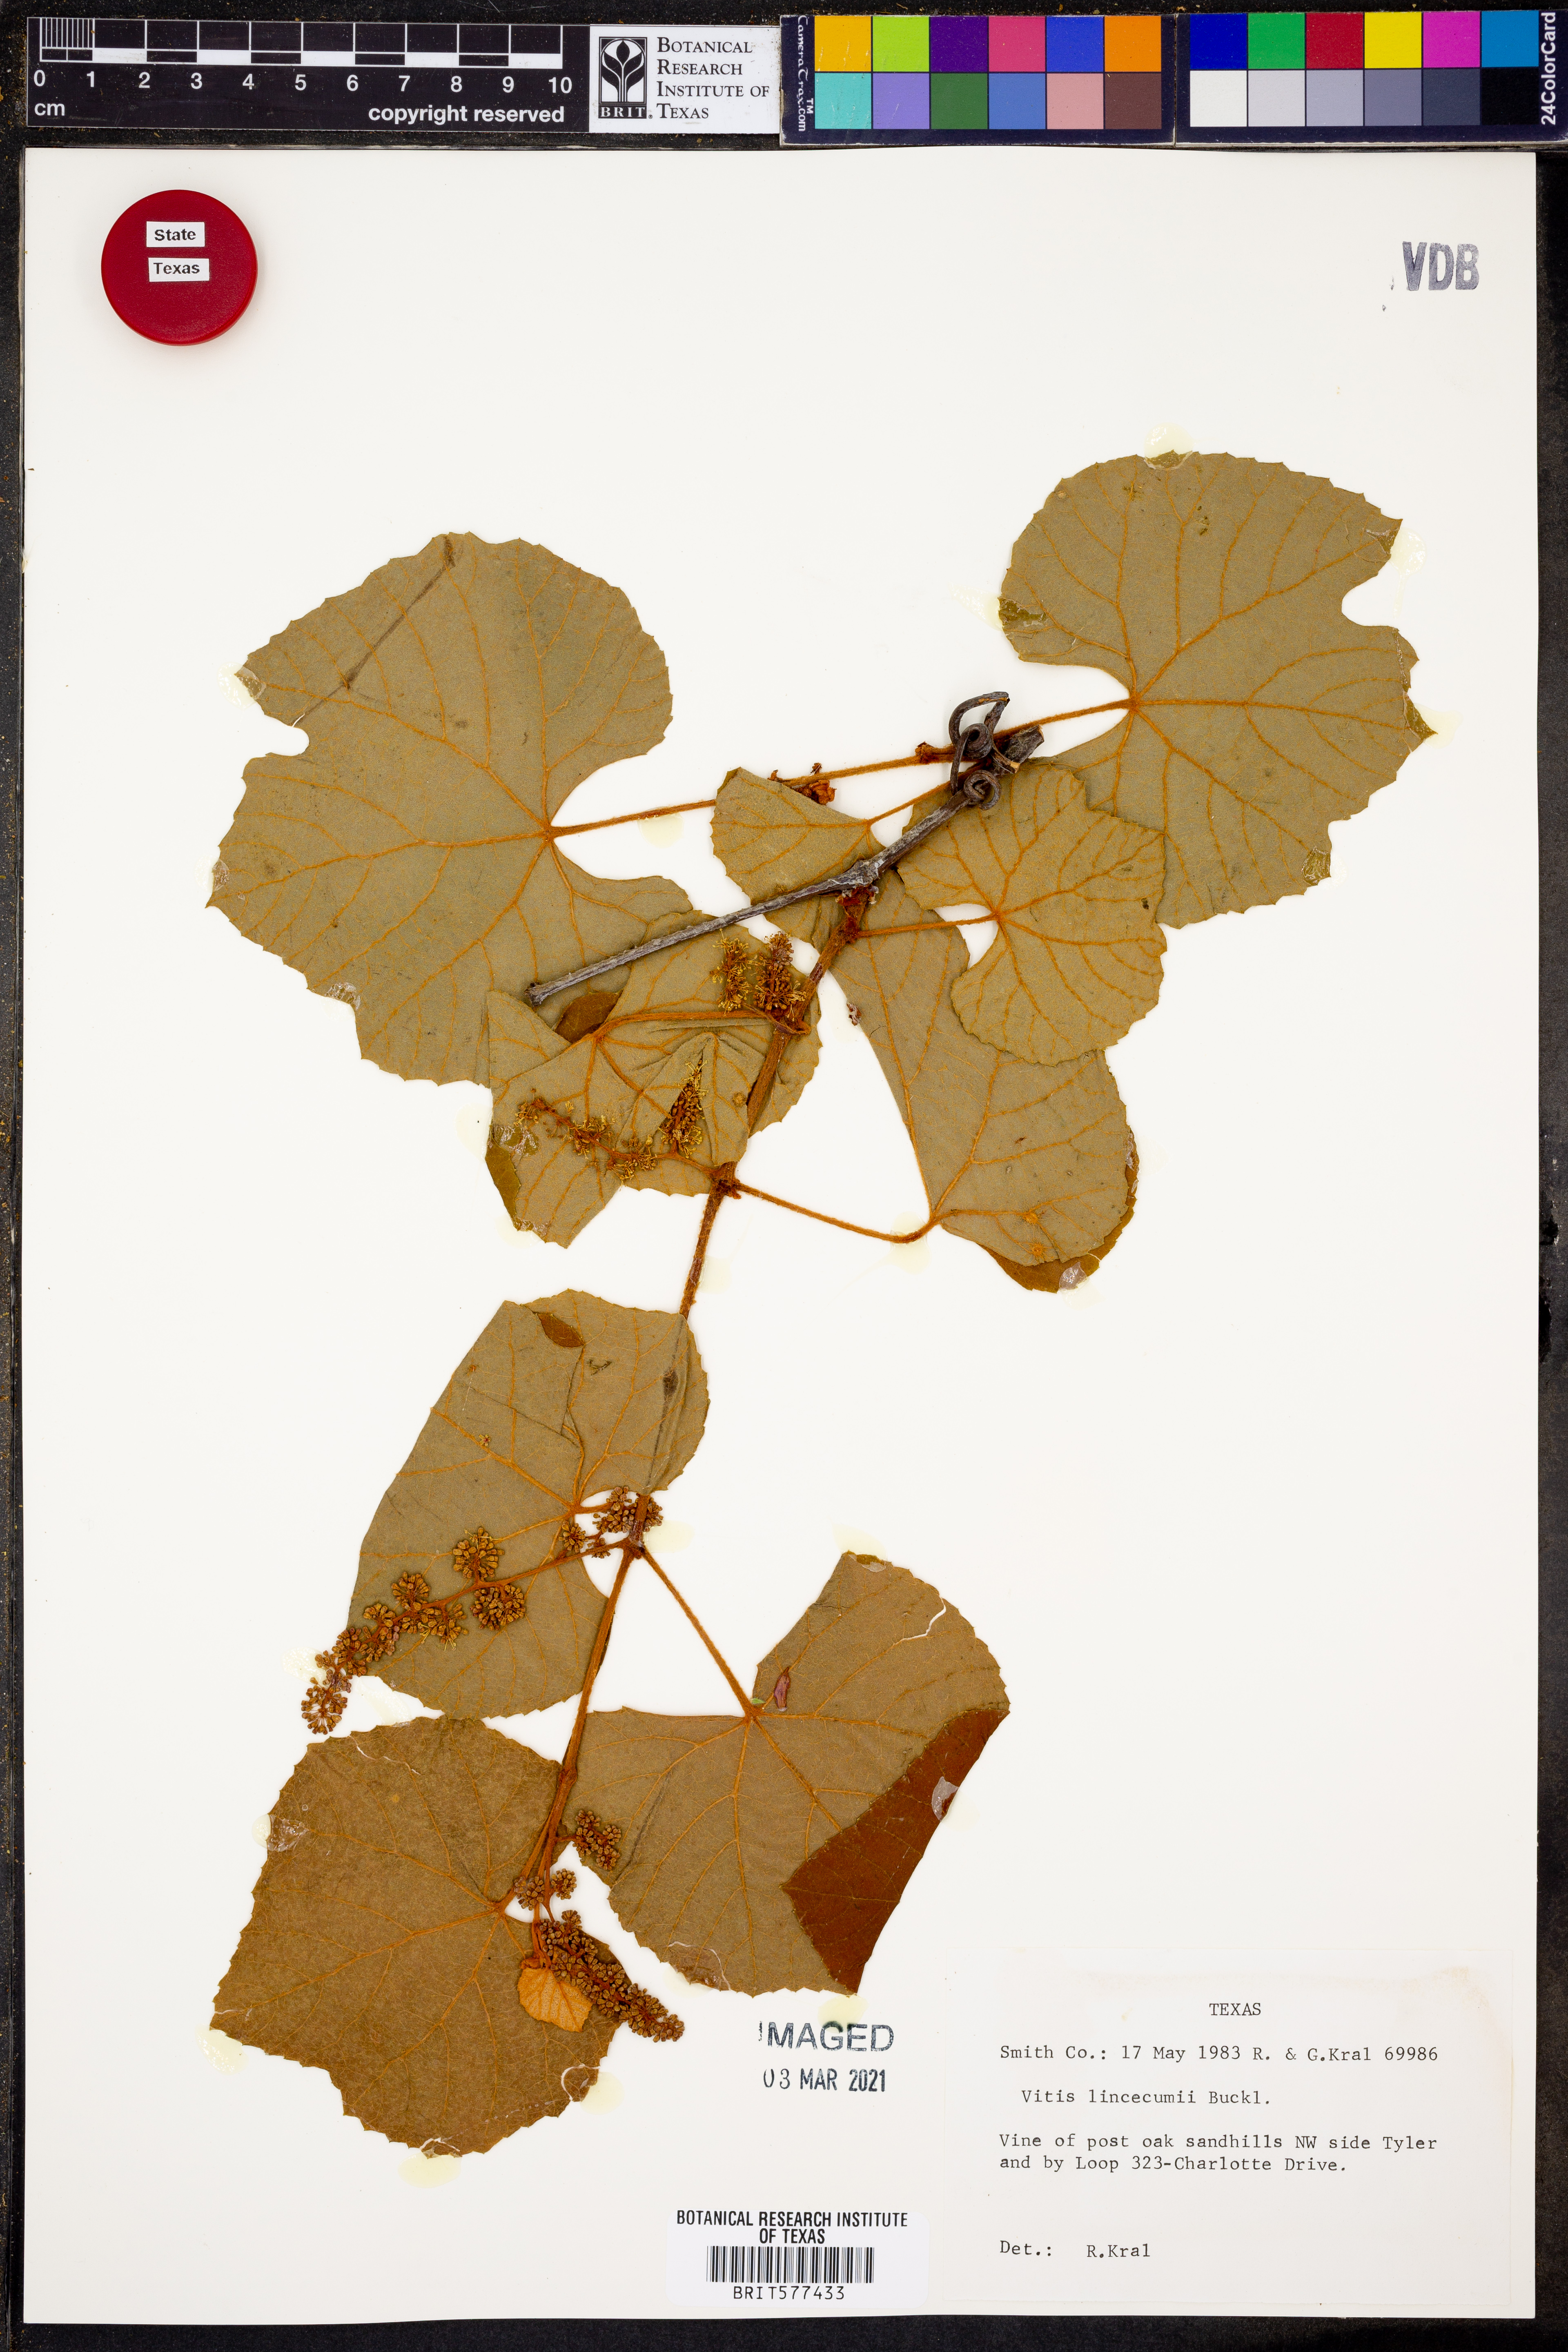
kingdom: Plantae
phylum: Tracheophyta
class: Magnoliopsida
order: Vitales
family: Vitaceae
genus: Vitis
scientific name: Vitis aestivalis
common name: Pigeon grape
